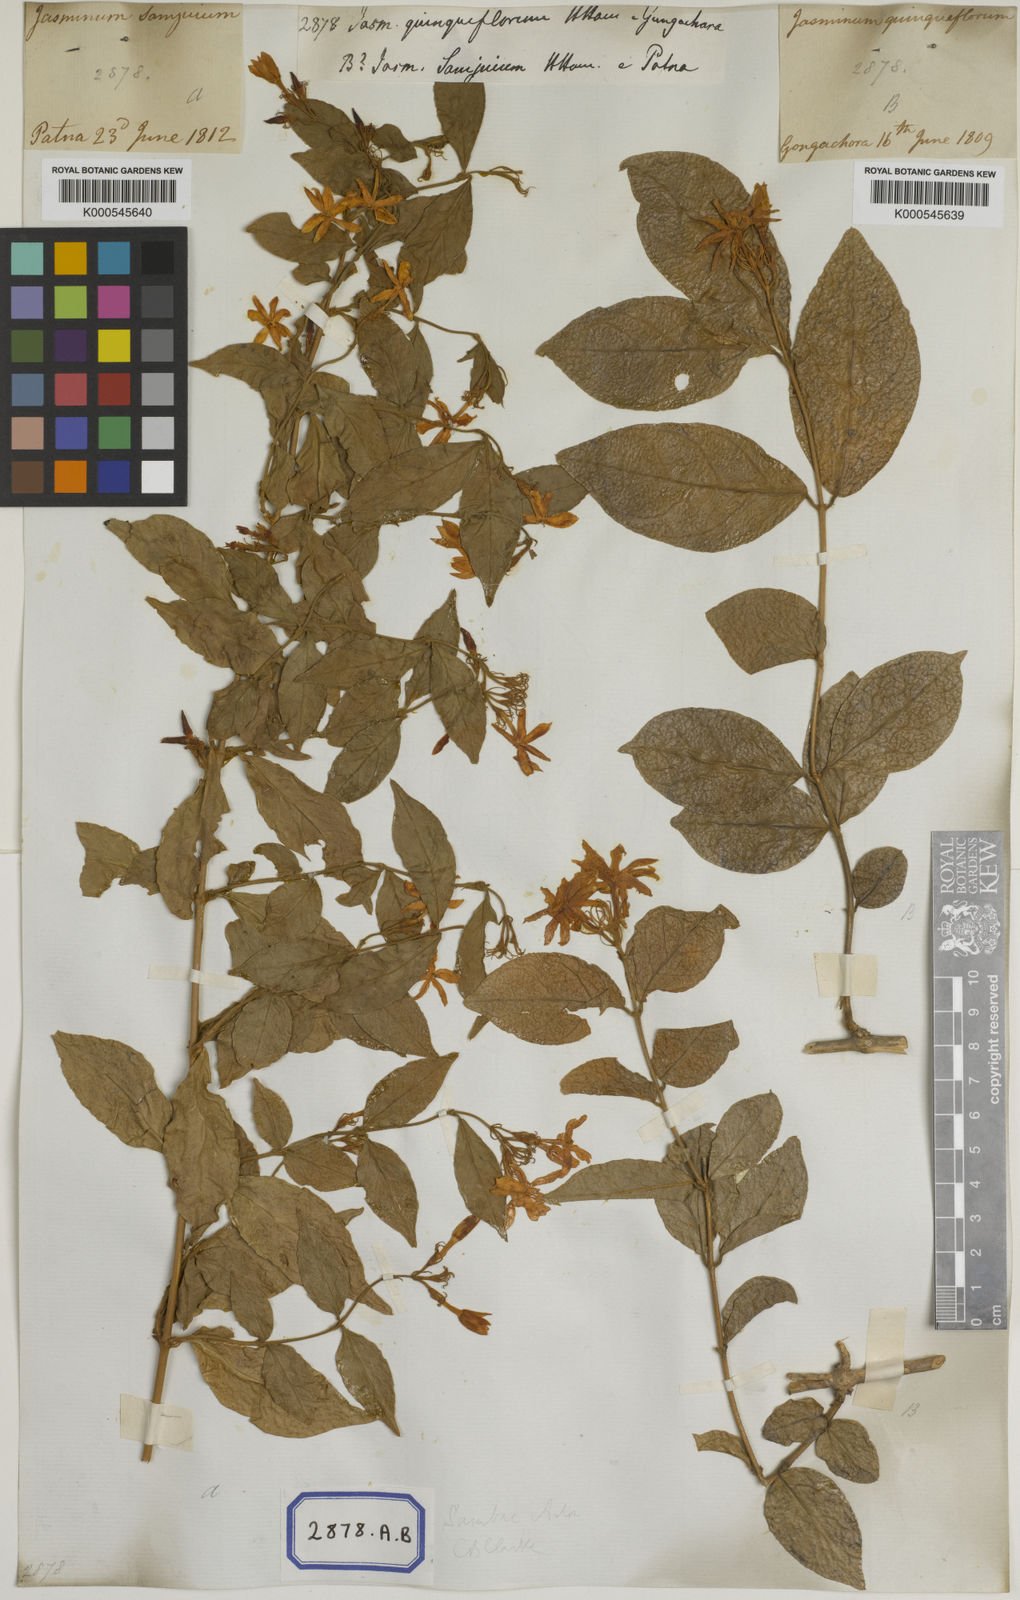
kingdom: Plantae
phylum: Tracheophyta
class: Magnoliopsida
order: Lamiales
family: Oleaceae
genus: Jasminum
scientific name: Jasminum sambac
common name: Arabian jasmine
